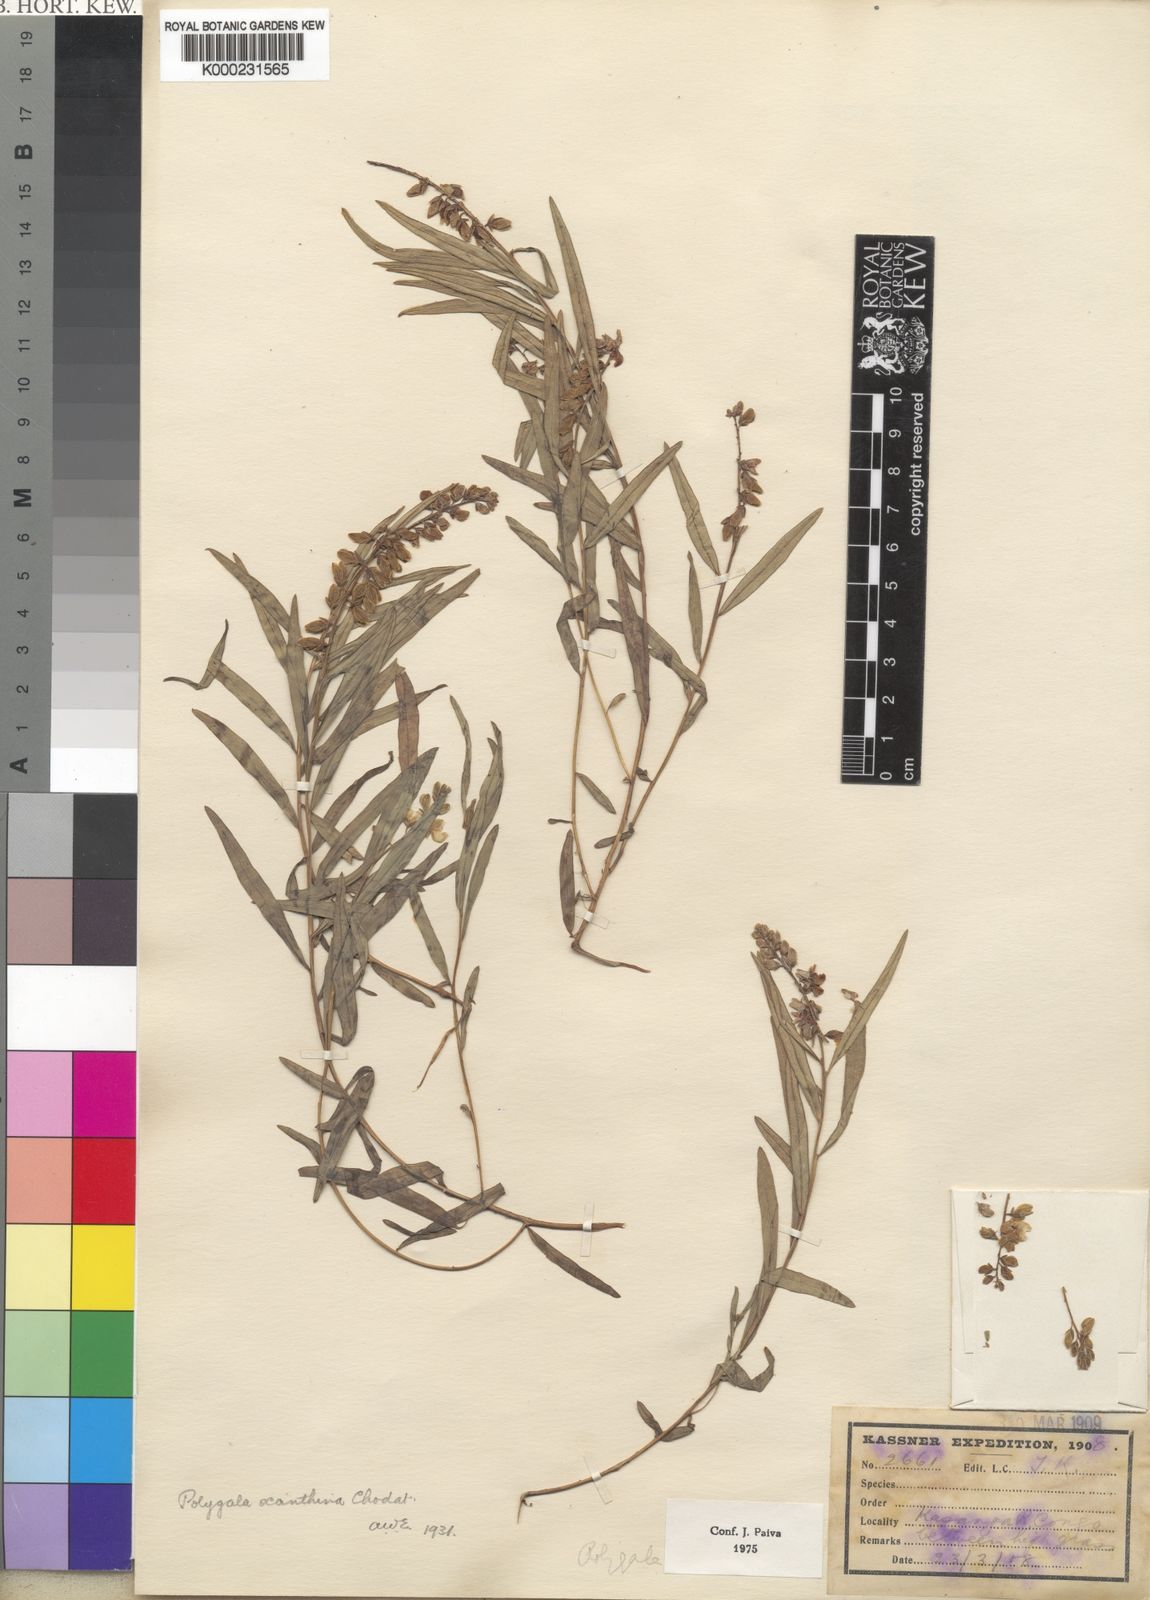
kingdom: Plantae
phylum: Tracheophyta
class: Magnoliopsida
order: Fabales
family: Polygalaceae
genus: Polygala
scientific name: Polygala xanthina
